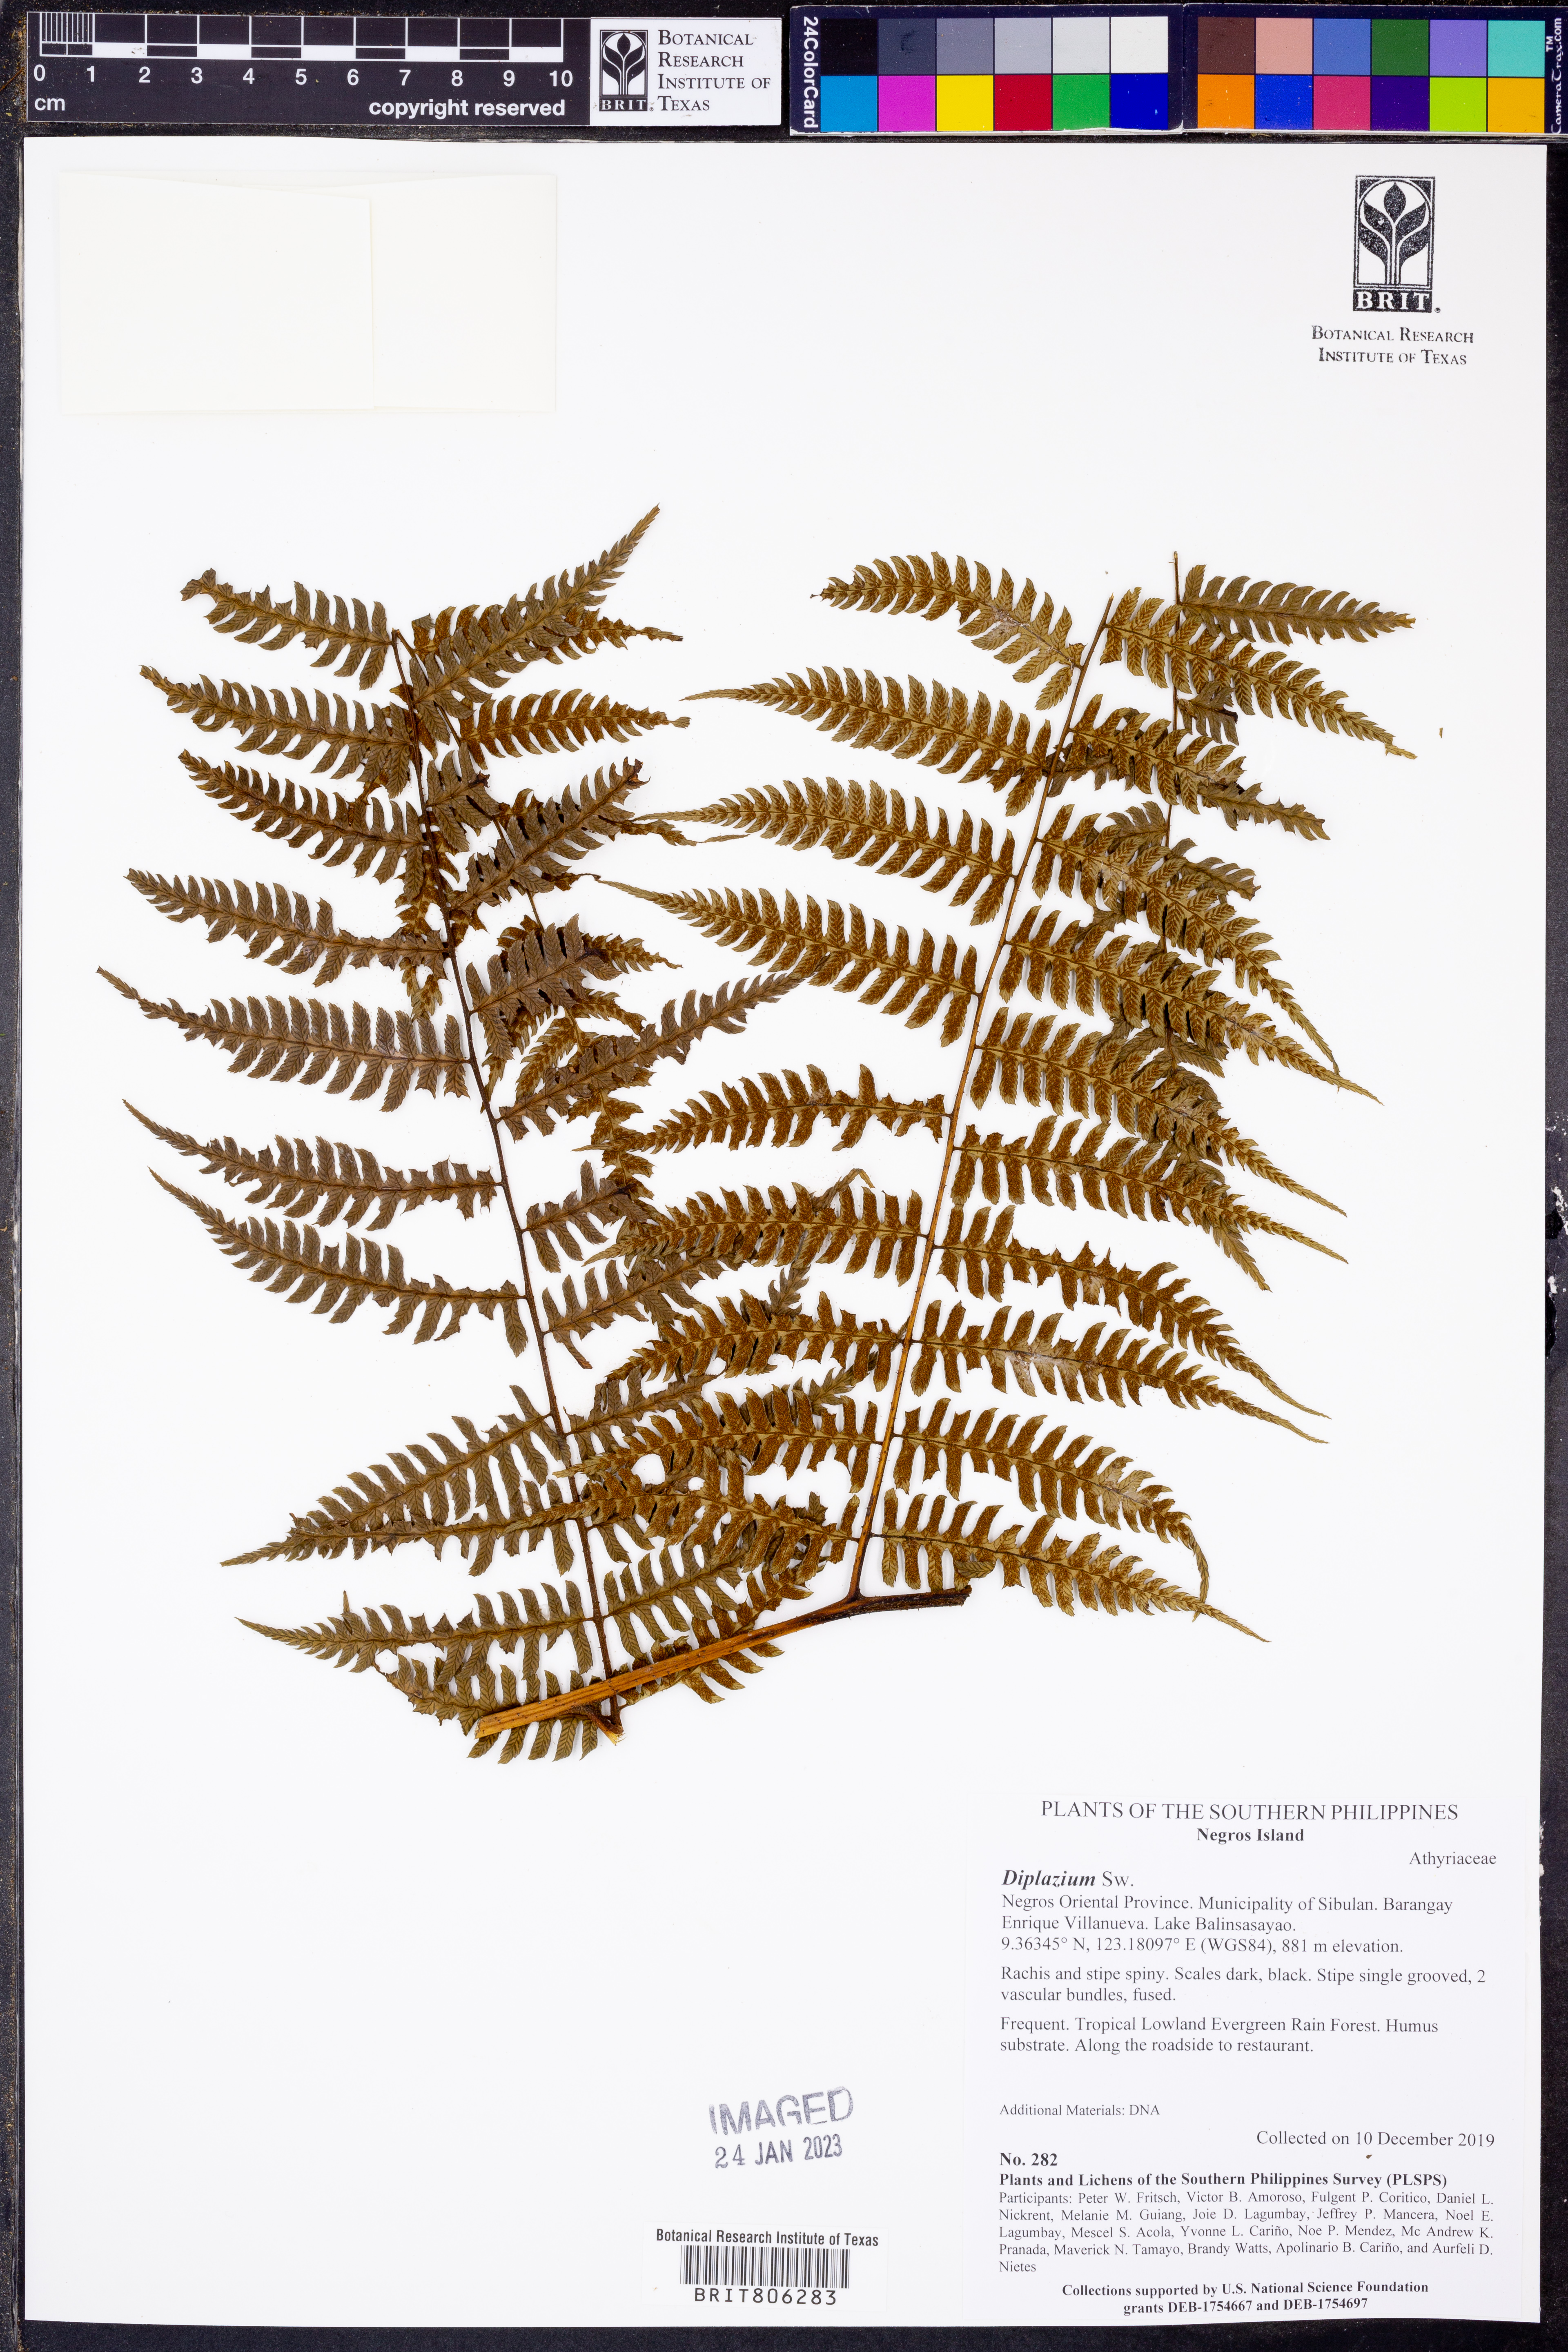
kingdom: Plantae
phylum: Tracheophyta
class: Polypodiopsida
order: Polypodiales
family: Athyriaceae
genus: Diplazium
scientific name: Diplazium
